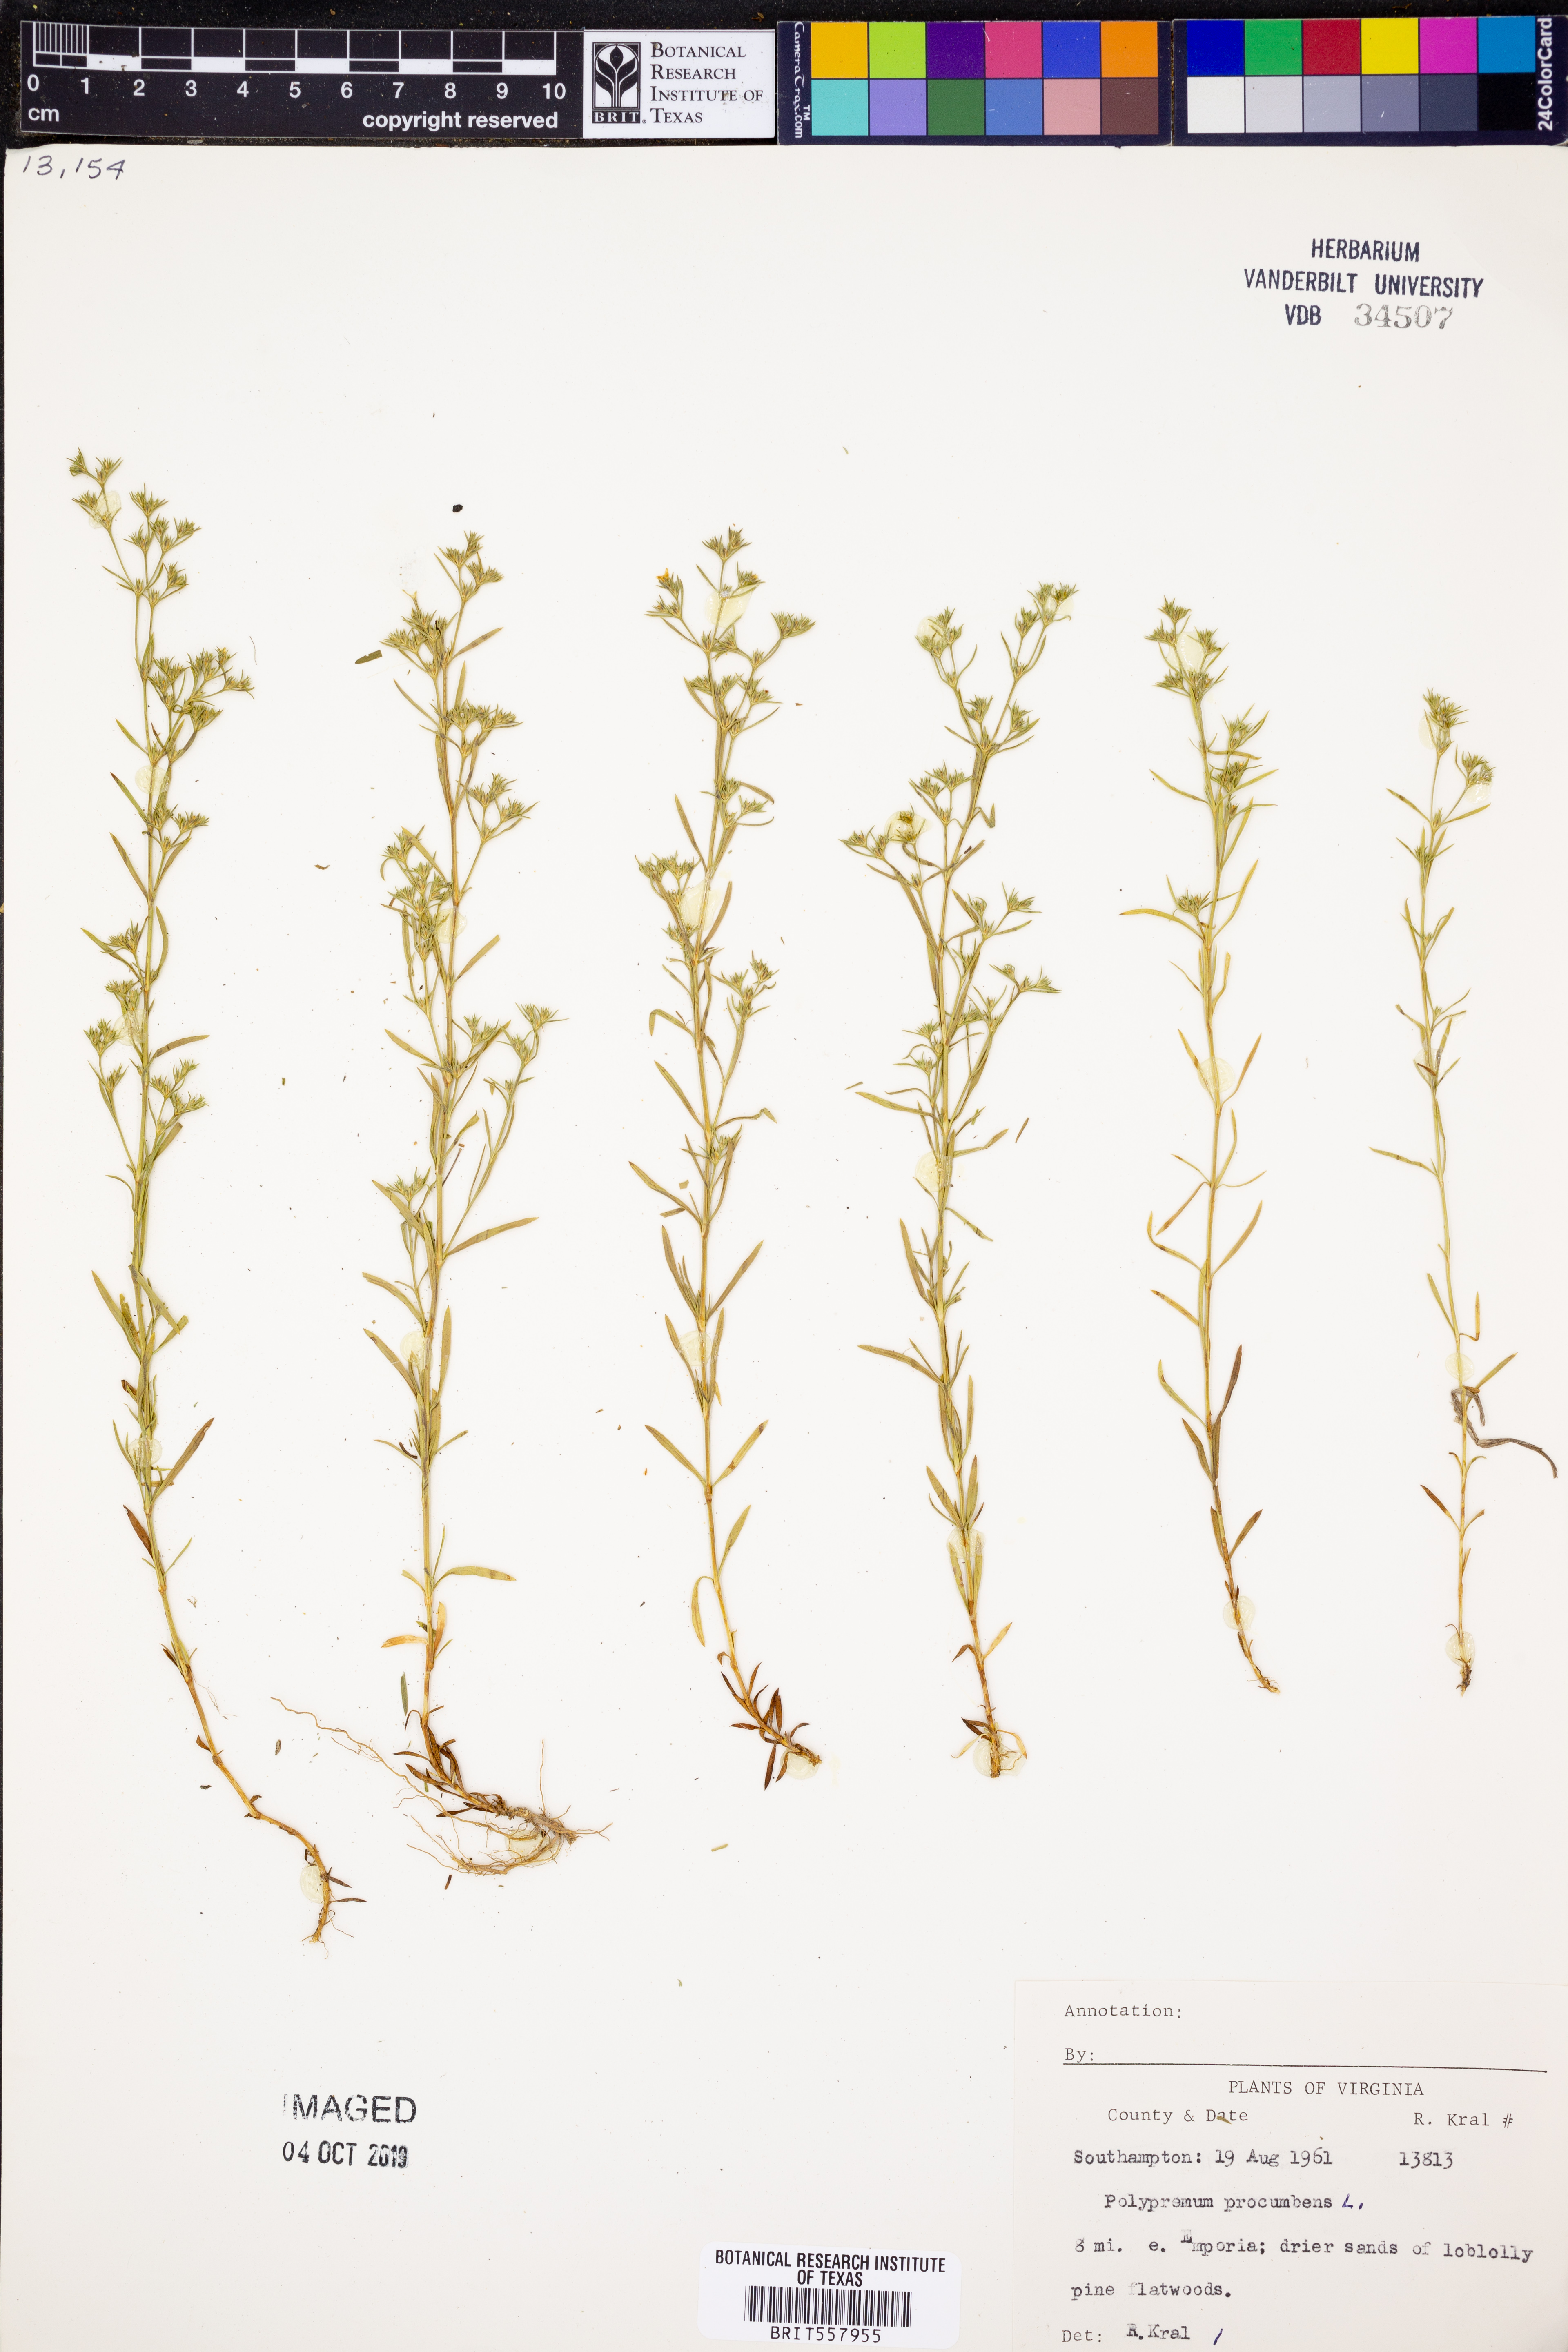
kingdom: Plantae
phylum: Tracheophyta
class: Magnoliopsida
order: Lamiales
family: Tetrachondraceae
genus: Polypremum
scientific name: Polypremum procumbens
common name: Juniper-leaf
